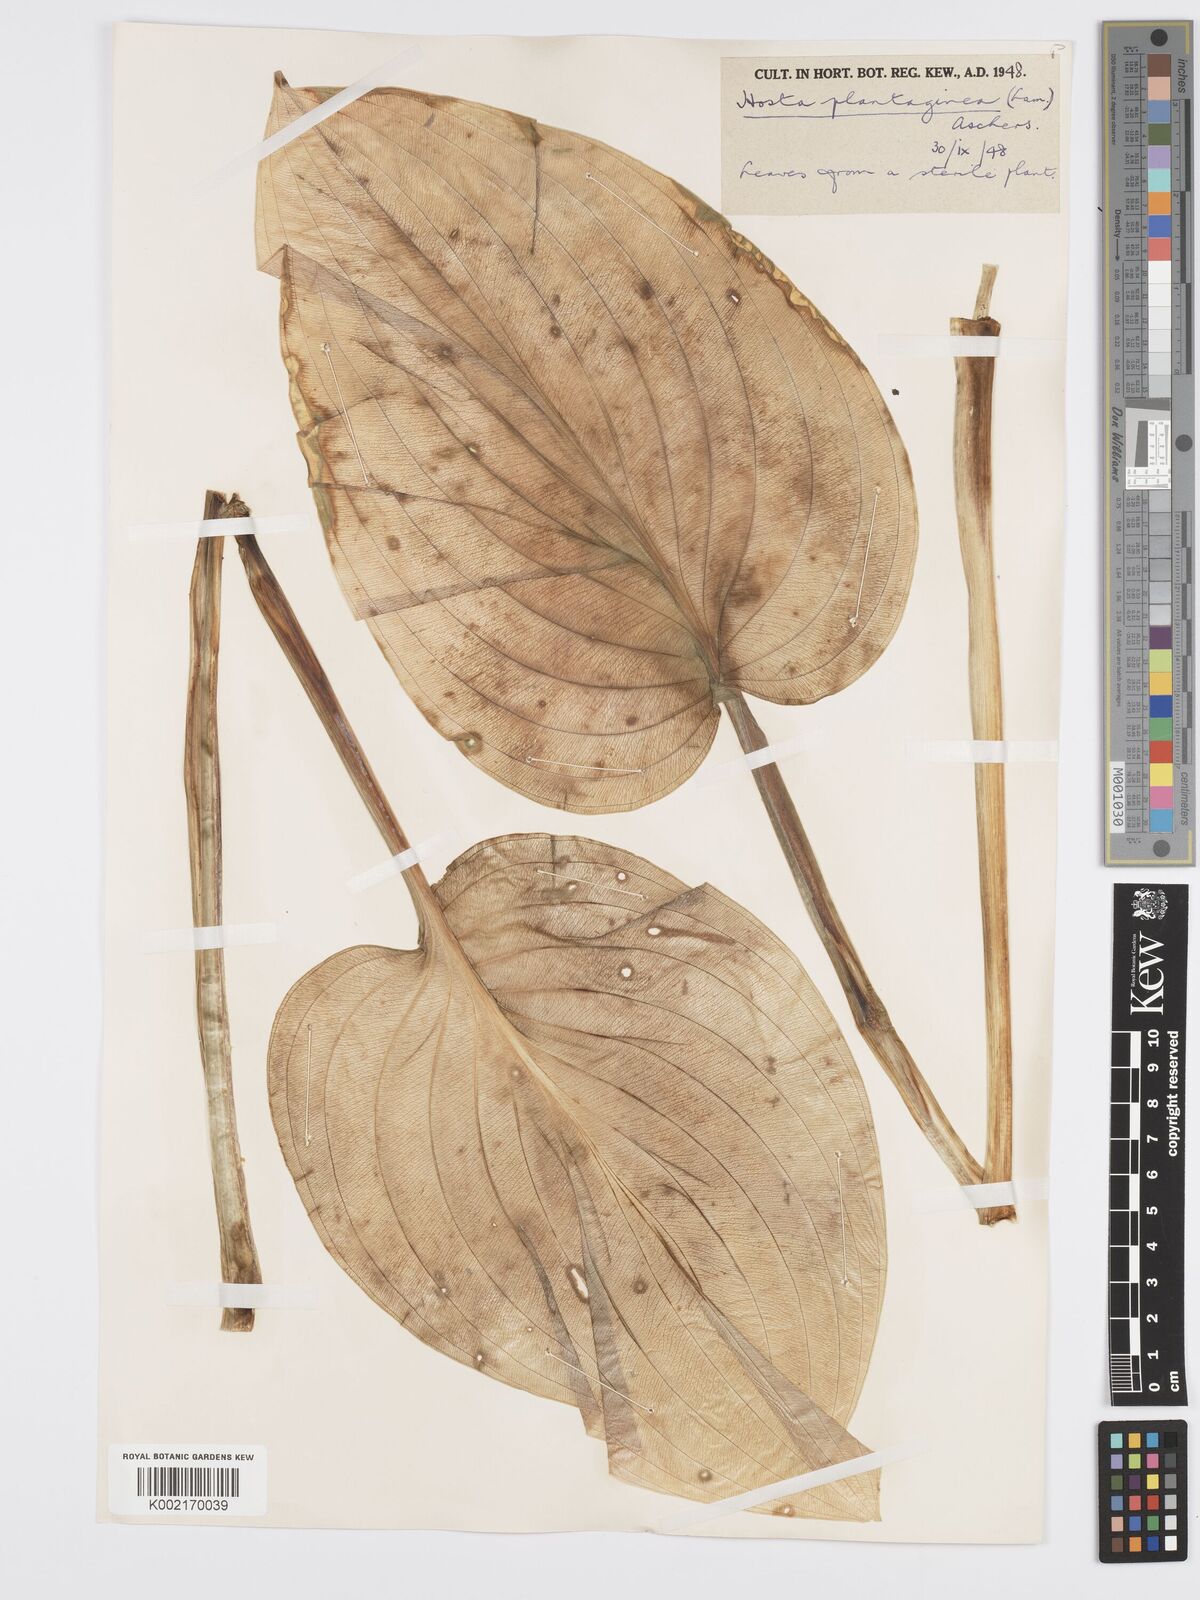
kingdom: Plantae
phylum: Tracheophyta
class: Liliopsida
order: Asparagales
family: Asparagaceae
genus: Hosta
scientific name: Hosta plantaginea
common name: August-lily
